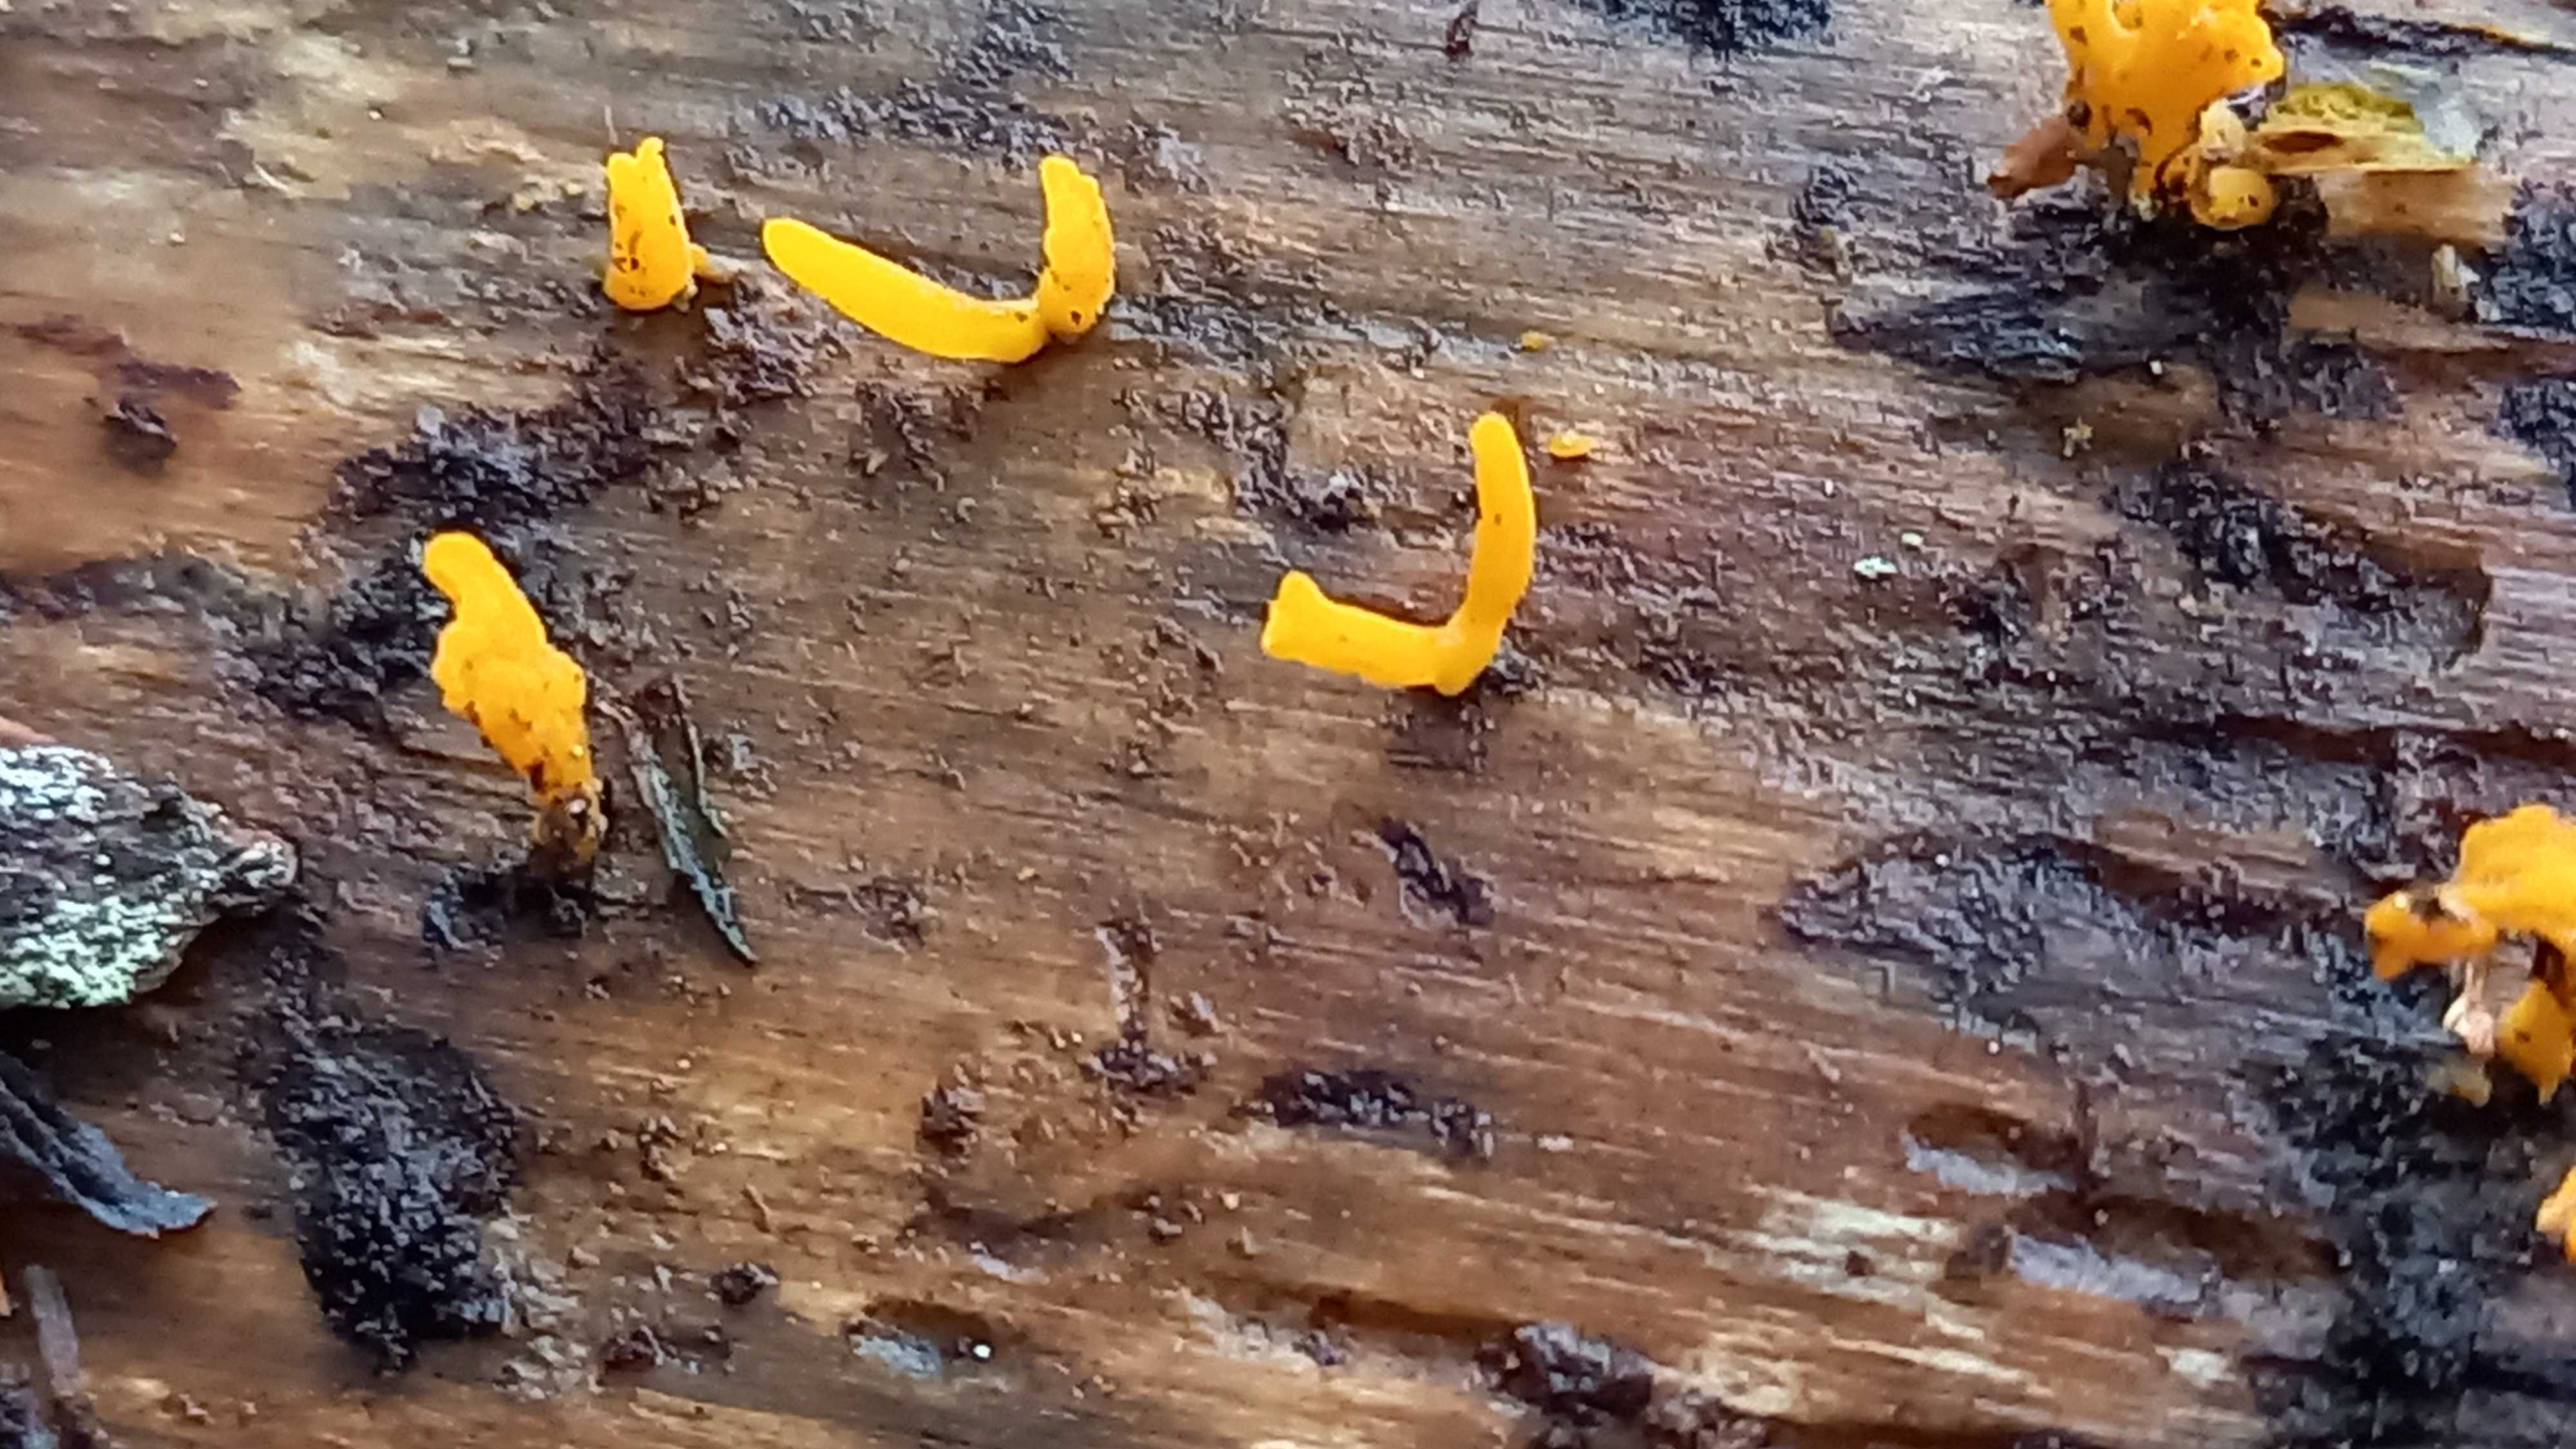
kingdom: Fungi
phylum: Basidiomycota
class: Dacrymycetes
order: Dacrymycetales
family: Dacrymycetaceae
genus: Calocera
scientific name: Calocera furcata
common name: fyrre-guldgaffel
